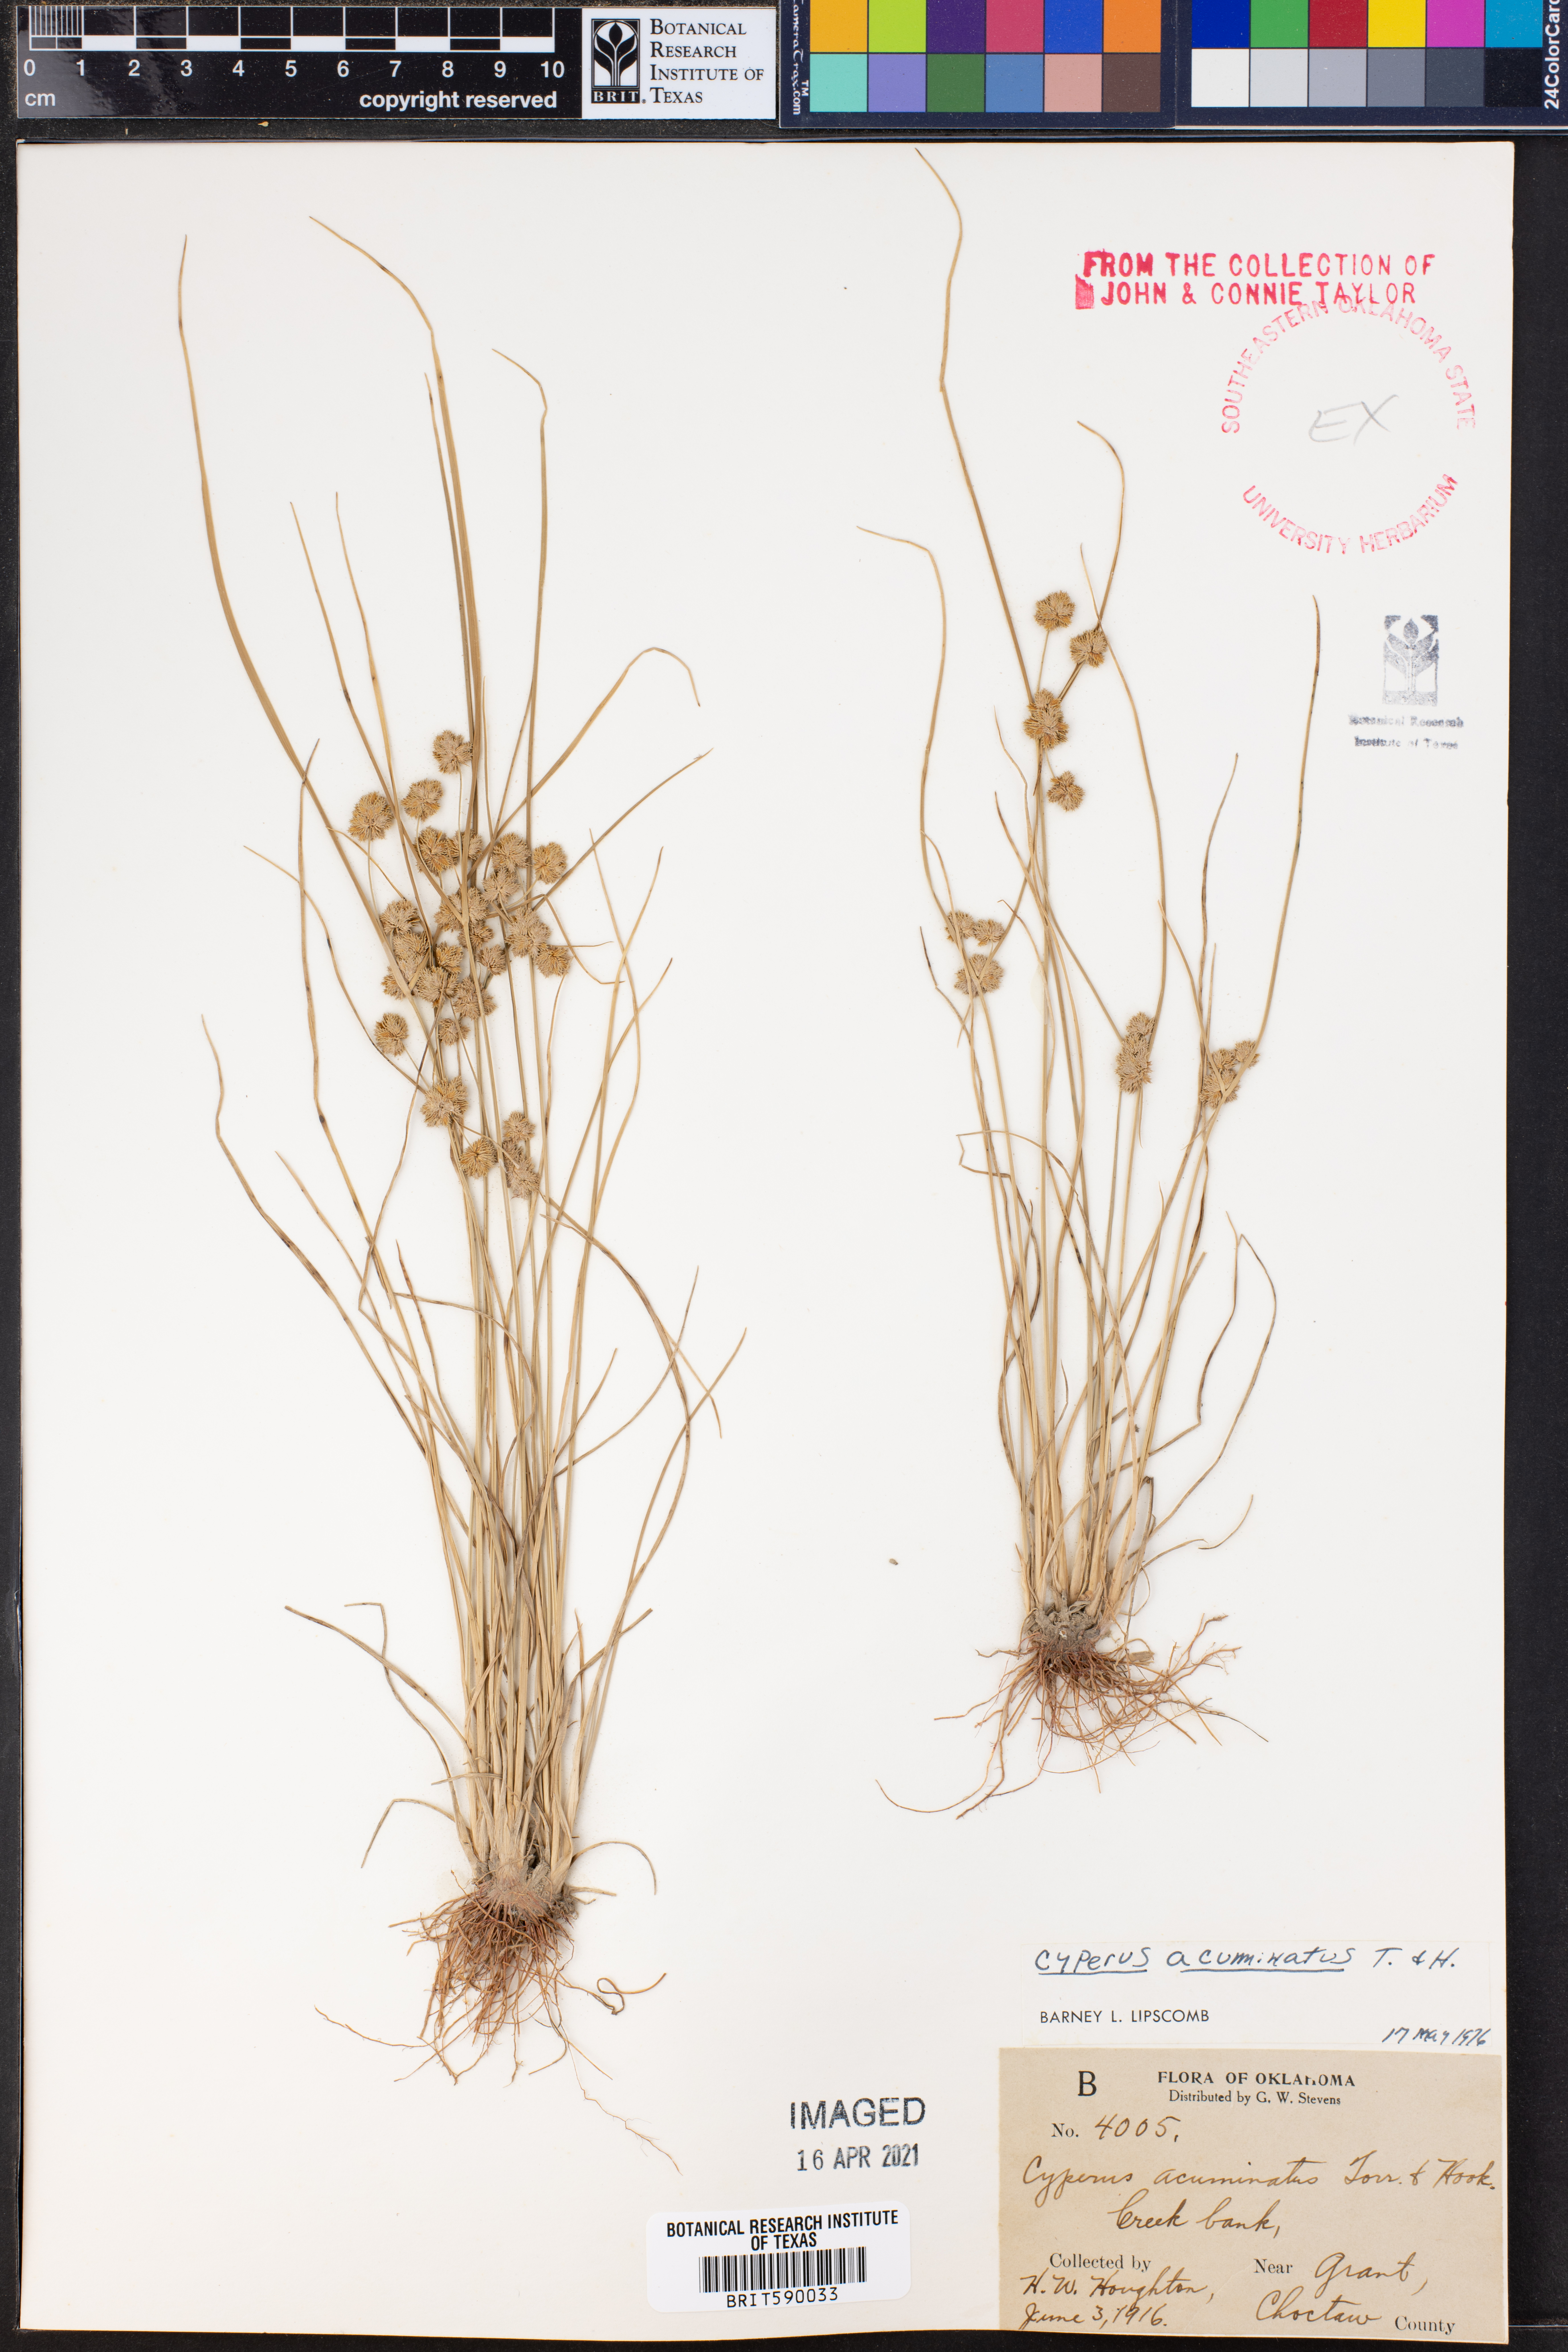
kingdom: Plantae
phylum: Tracheophyta
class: Liliopsida
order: Poales
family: Cyperaceae
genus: Cyperus
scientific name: Cyperus acuminatus
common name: Short-pointed cyperus
